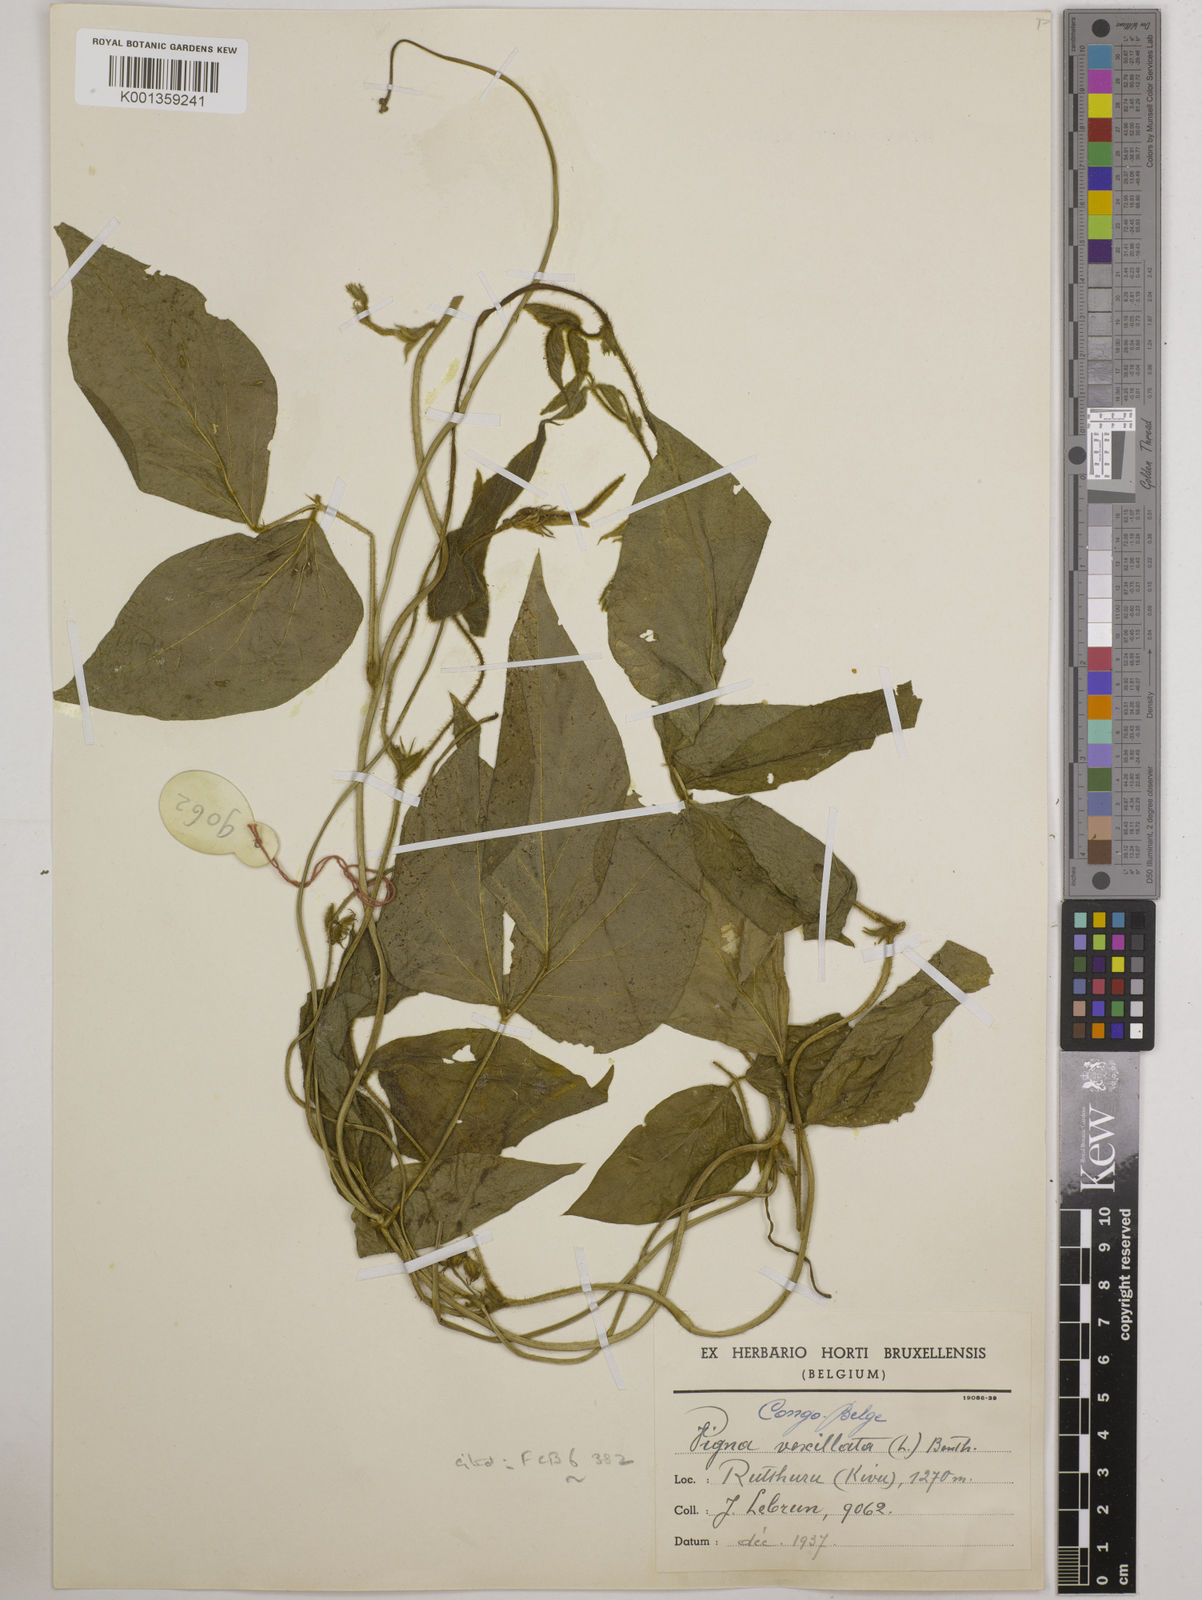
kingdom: Plantae
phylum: Tracheophyta
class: Magnoliopsida
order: Fabales
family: Fabaceae
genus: Vigna
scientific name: Vigna vexillata
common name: Zombi pea
